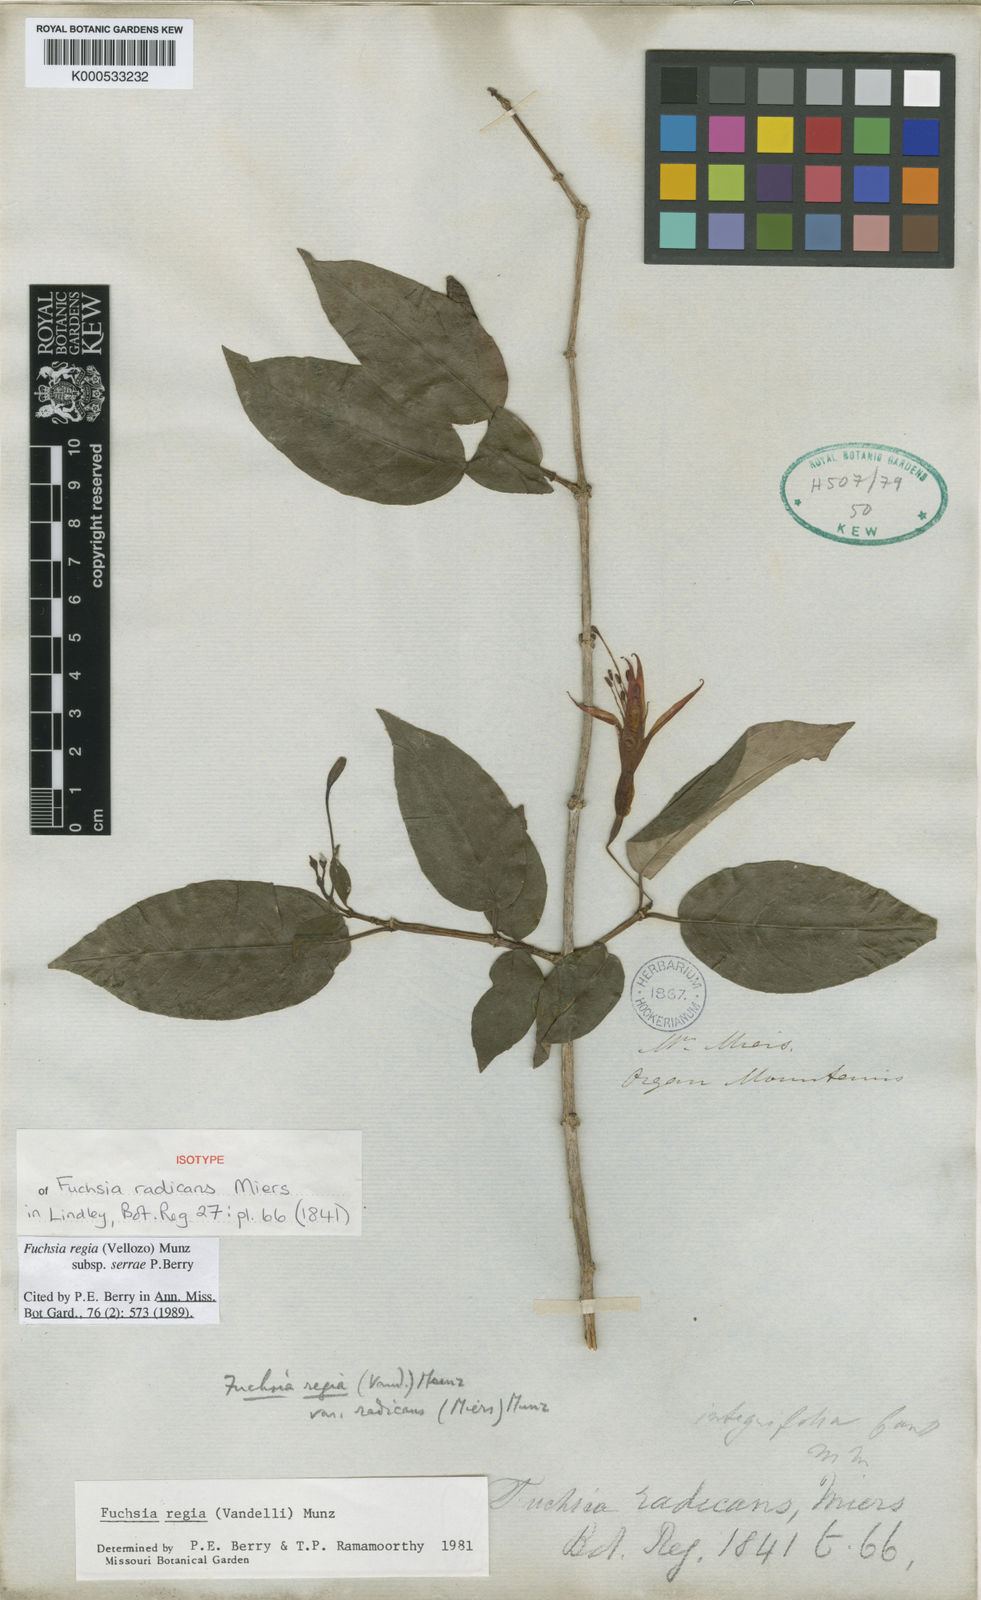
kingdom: Plantae
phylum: Tracheophyta
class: Magnoliopsida
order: Myrtales
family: Onagraceae
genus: Fuchsia
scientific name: Fuchsia regia
